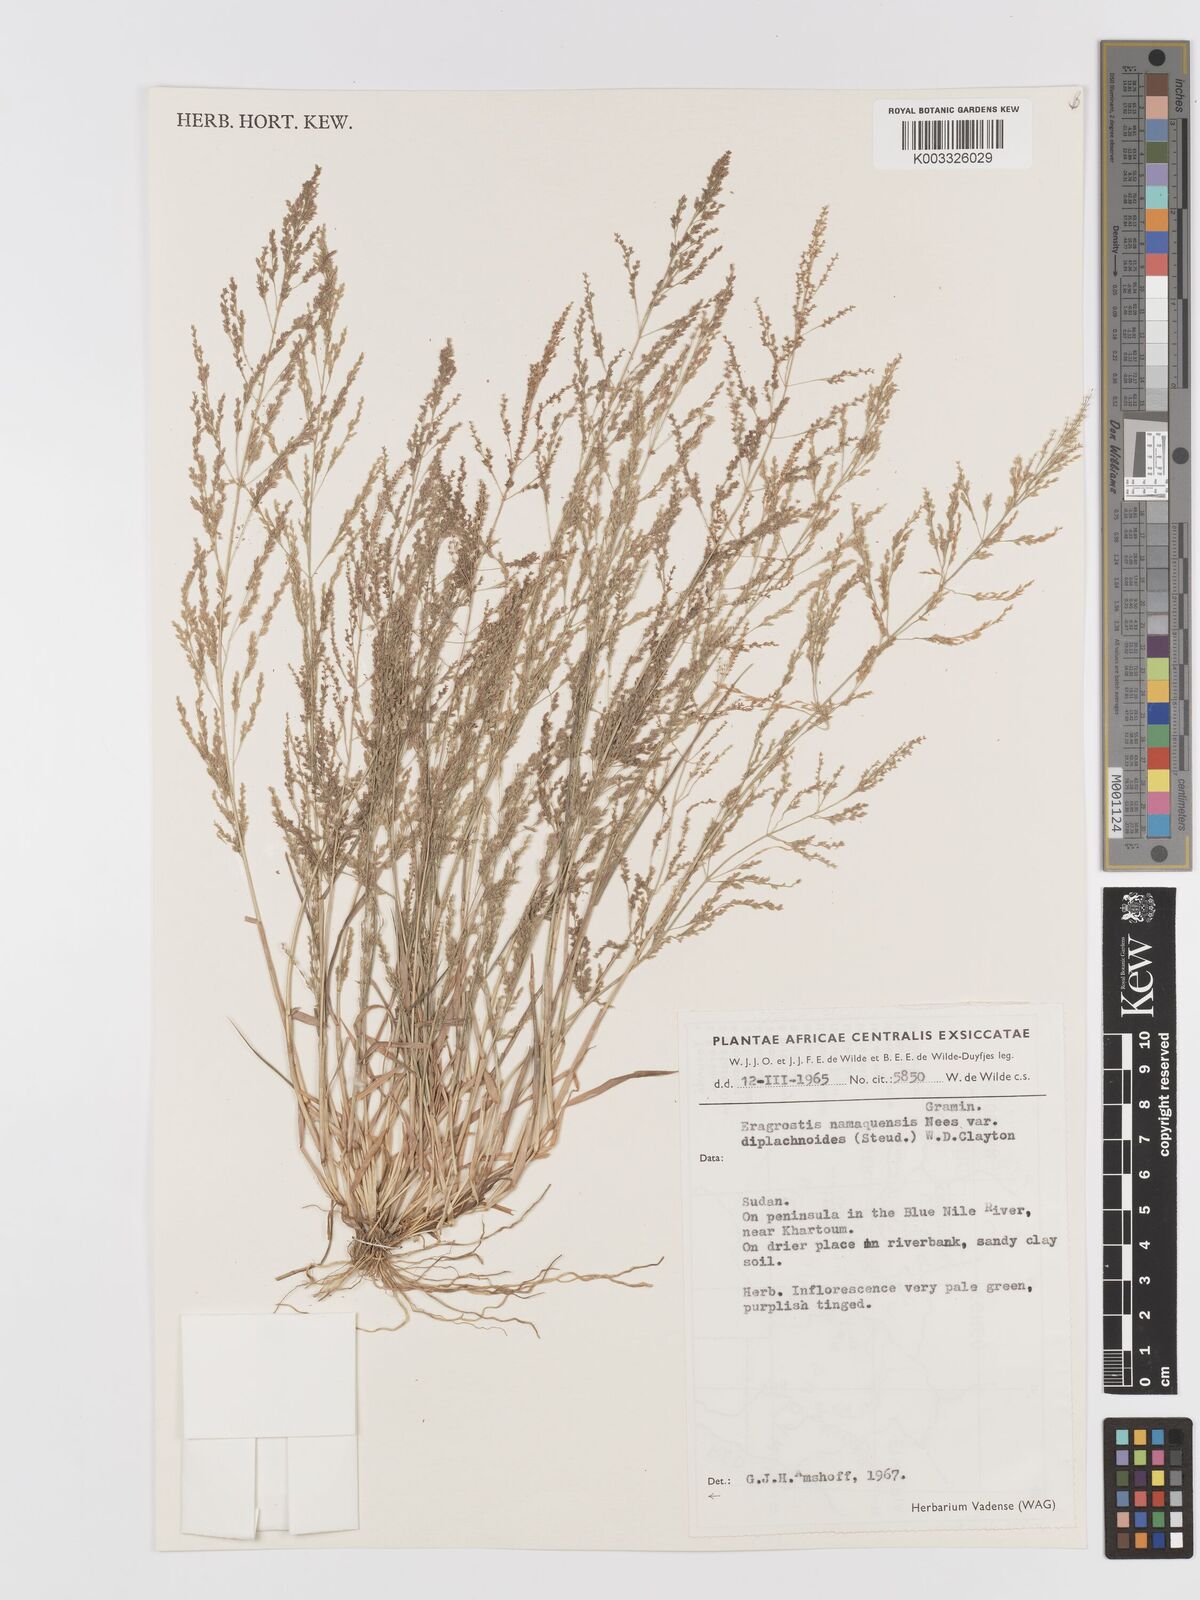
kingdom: Plantae
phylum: Tracheophyta
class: Liliopsida
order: Poales
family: Poaceae
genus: Eragrostis
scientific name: Eragrostis japonica
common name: Pond lovegrass
